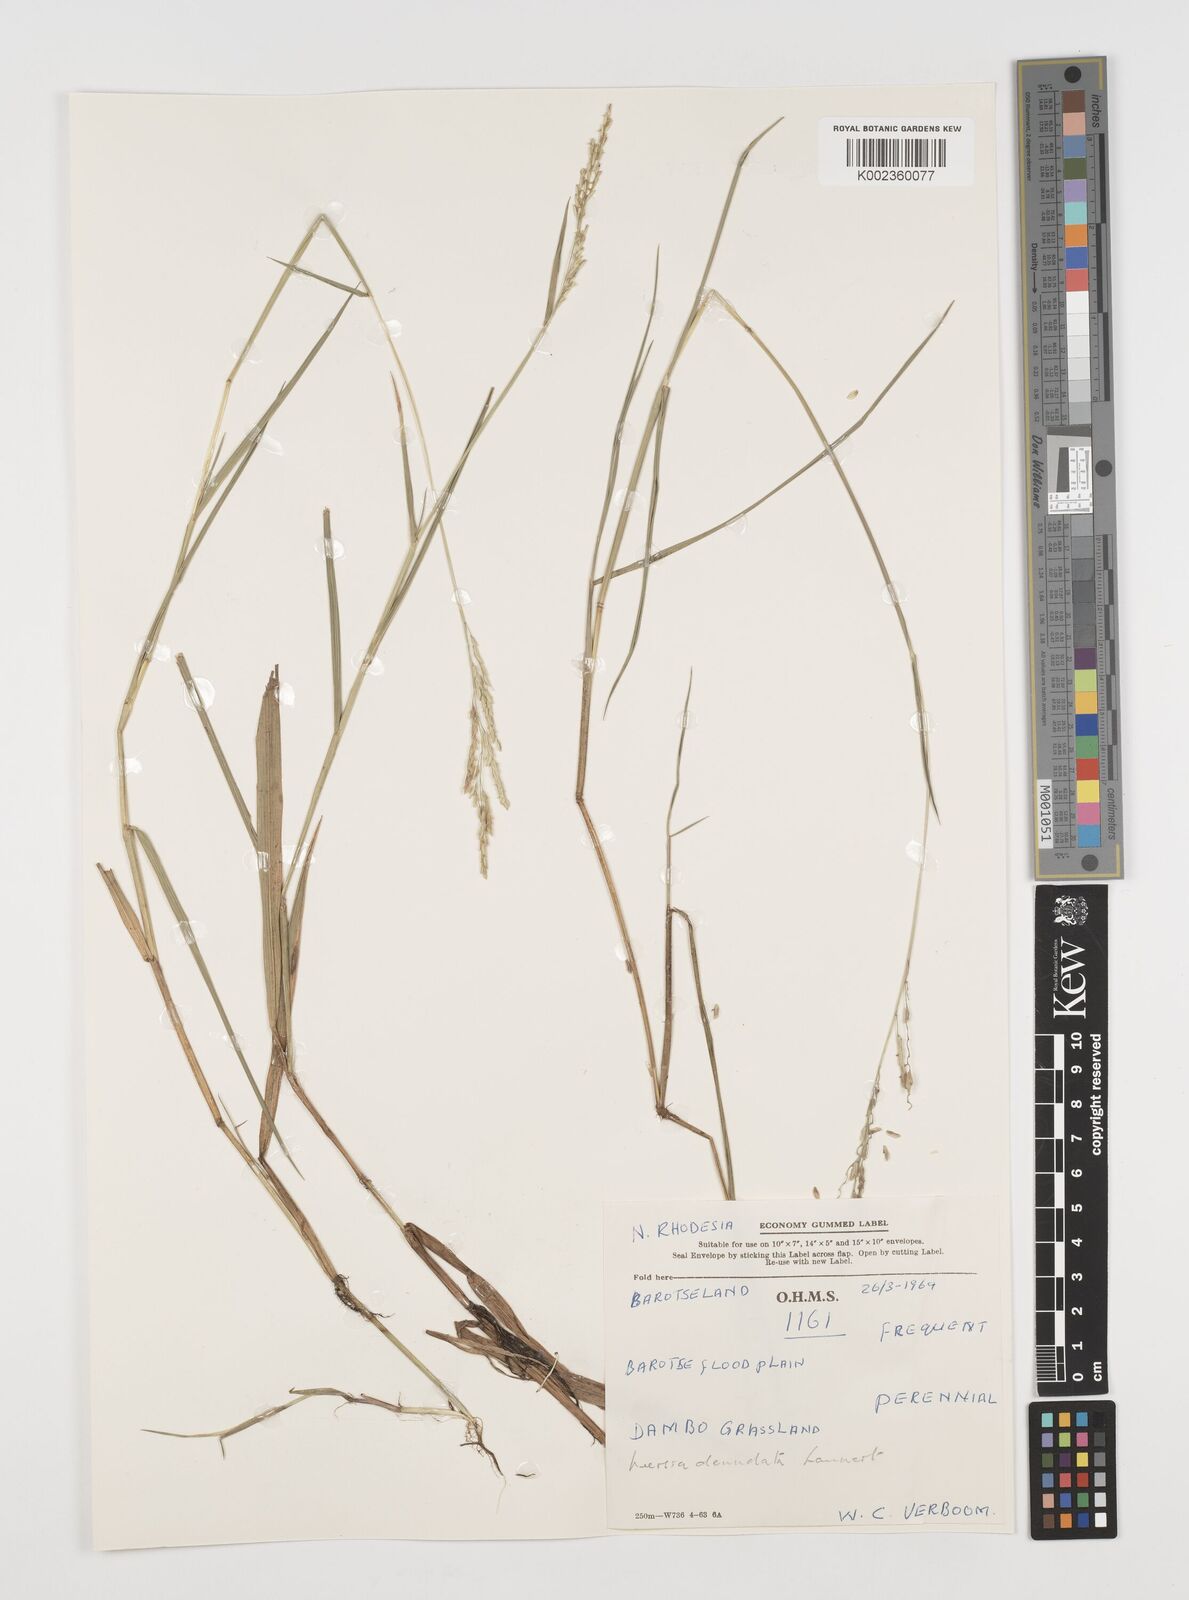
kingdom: Plantae
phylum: Tracheophyta
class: Liliopsida
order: Poales
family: Poaceae
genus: Leersia
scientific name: Leersia denudata
